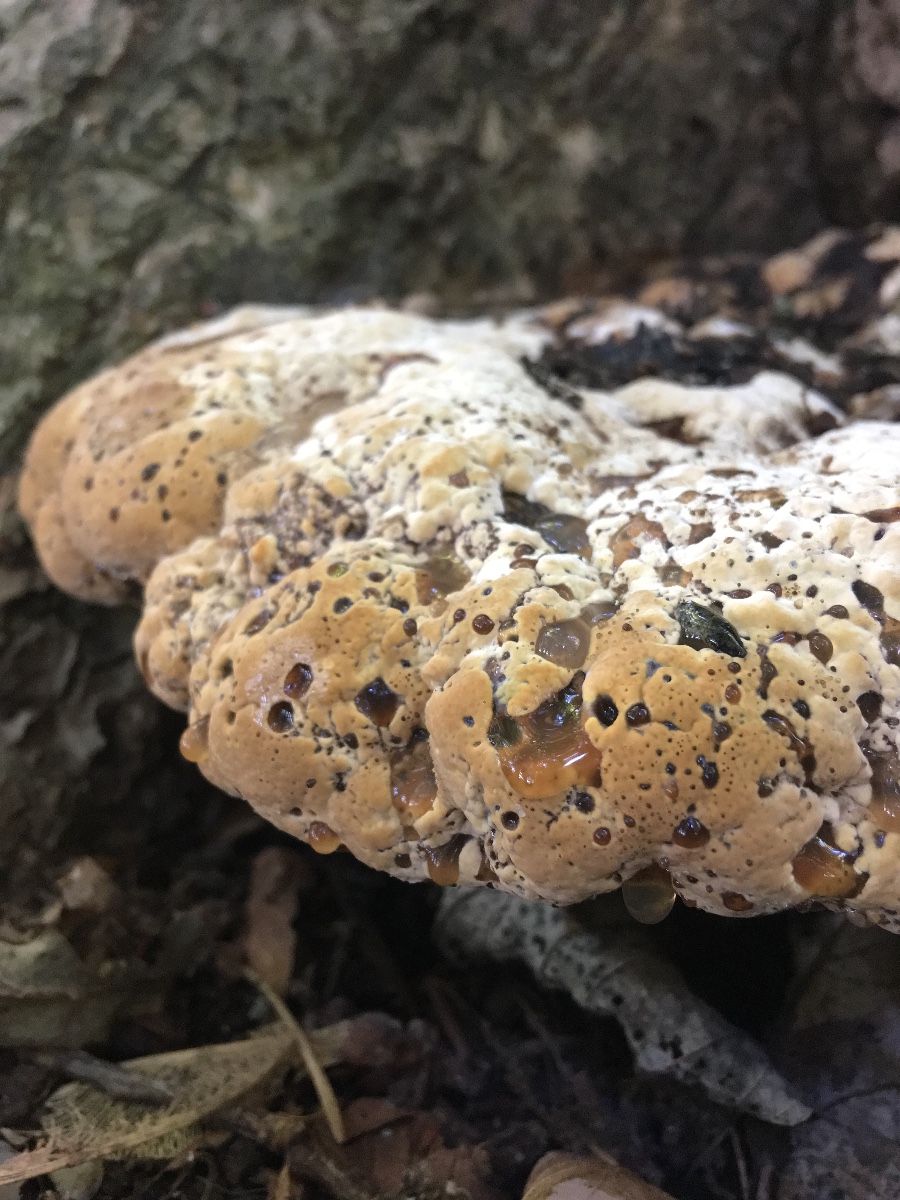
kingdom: Fungi
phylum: Basidiomycota
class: Agaricomycetes
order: Hymenochaetales
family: Hymenochaetaceae
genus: Pseudoinonotus
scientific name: Pseudoinonotus dryadeus
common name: ege-spejlporesvamp
